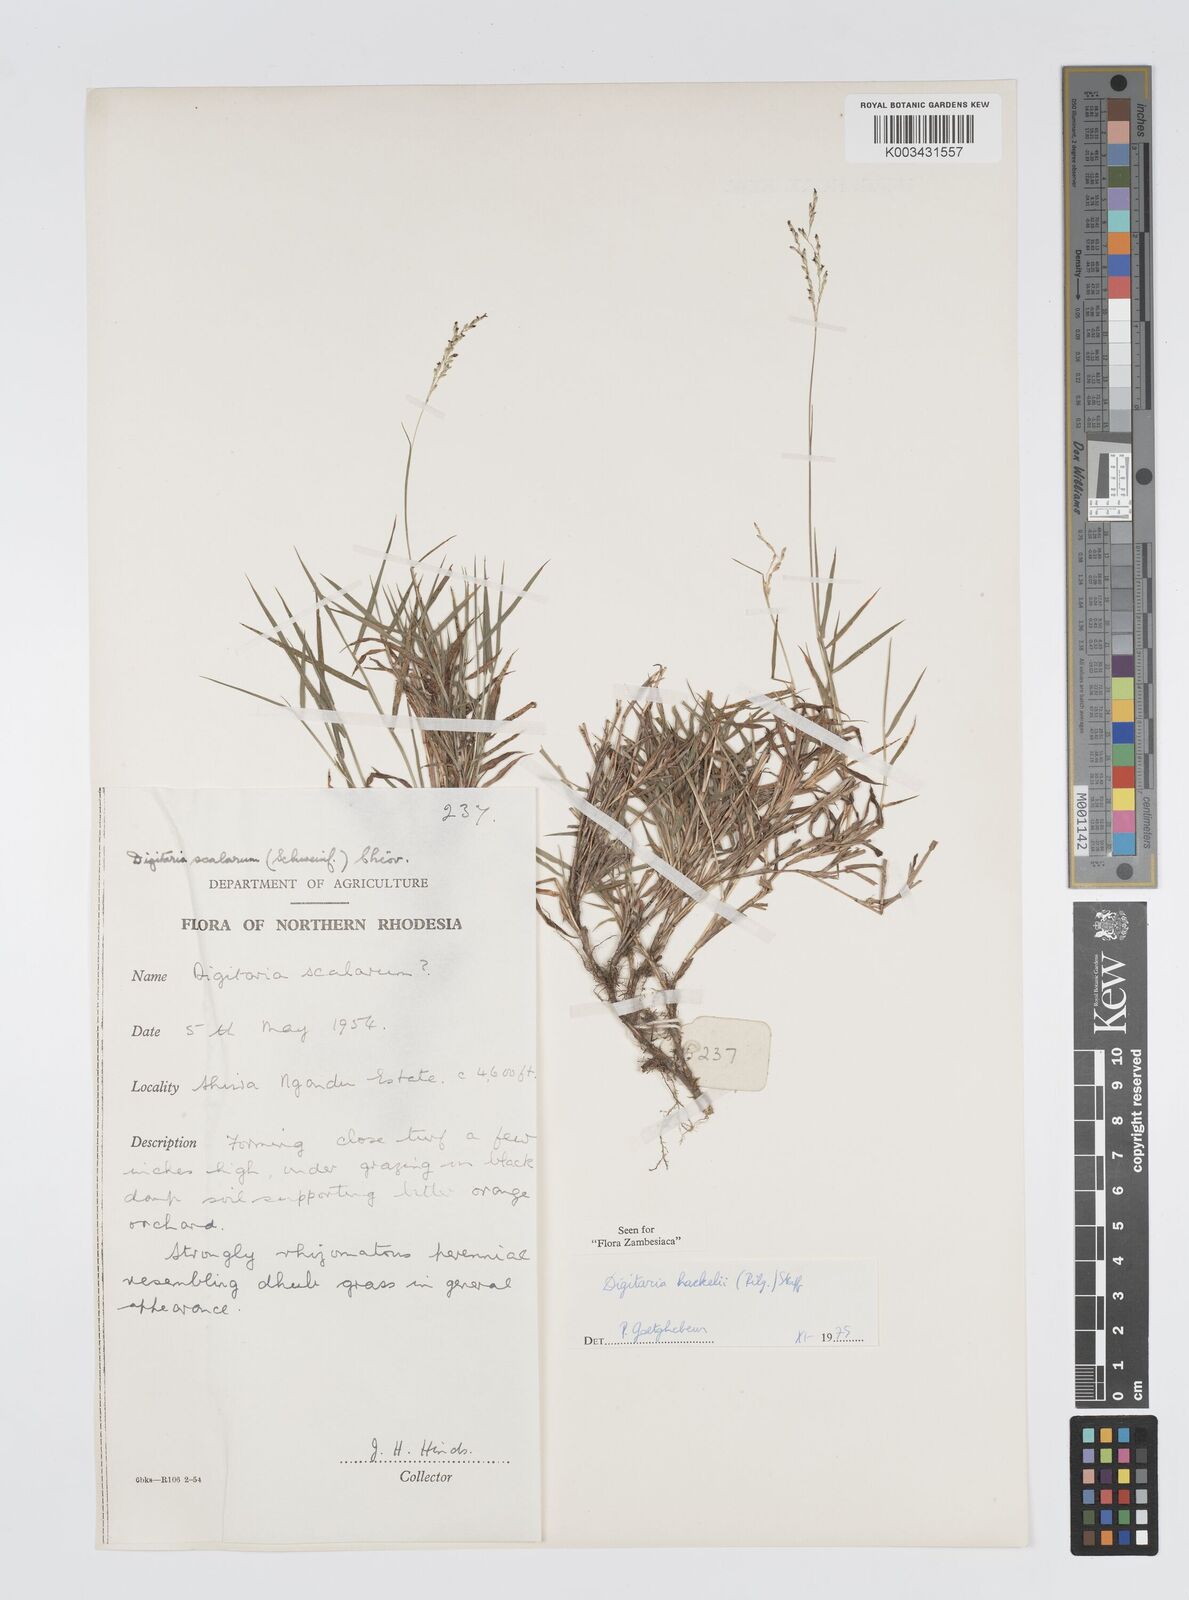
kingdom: Plantae
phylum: Tracheophyta
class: Liliopsida
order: Poales
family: Poaceae
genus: Digitaria
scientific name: Digitaria abyssinica
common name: African couchgrass
